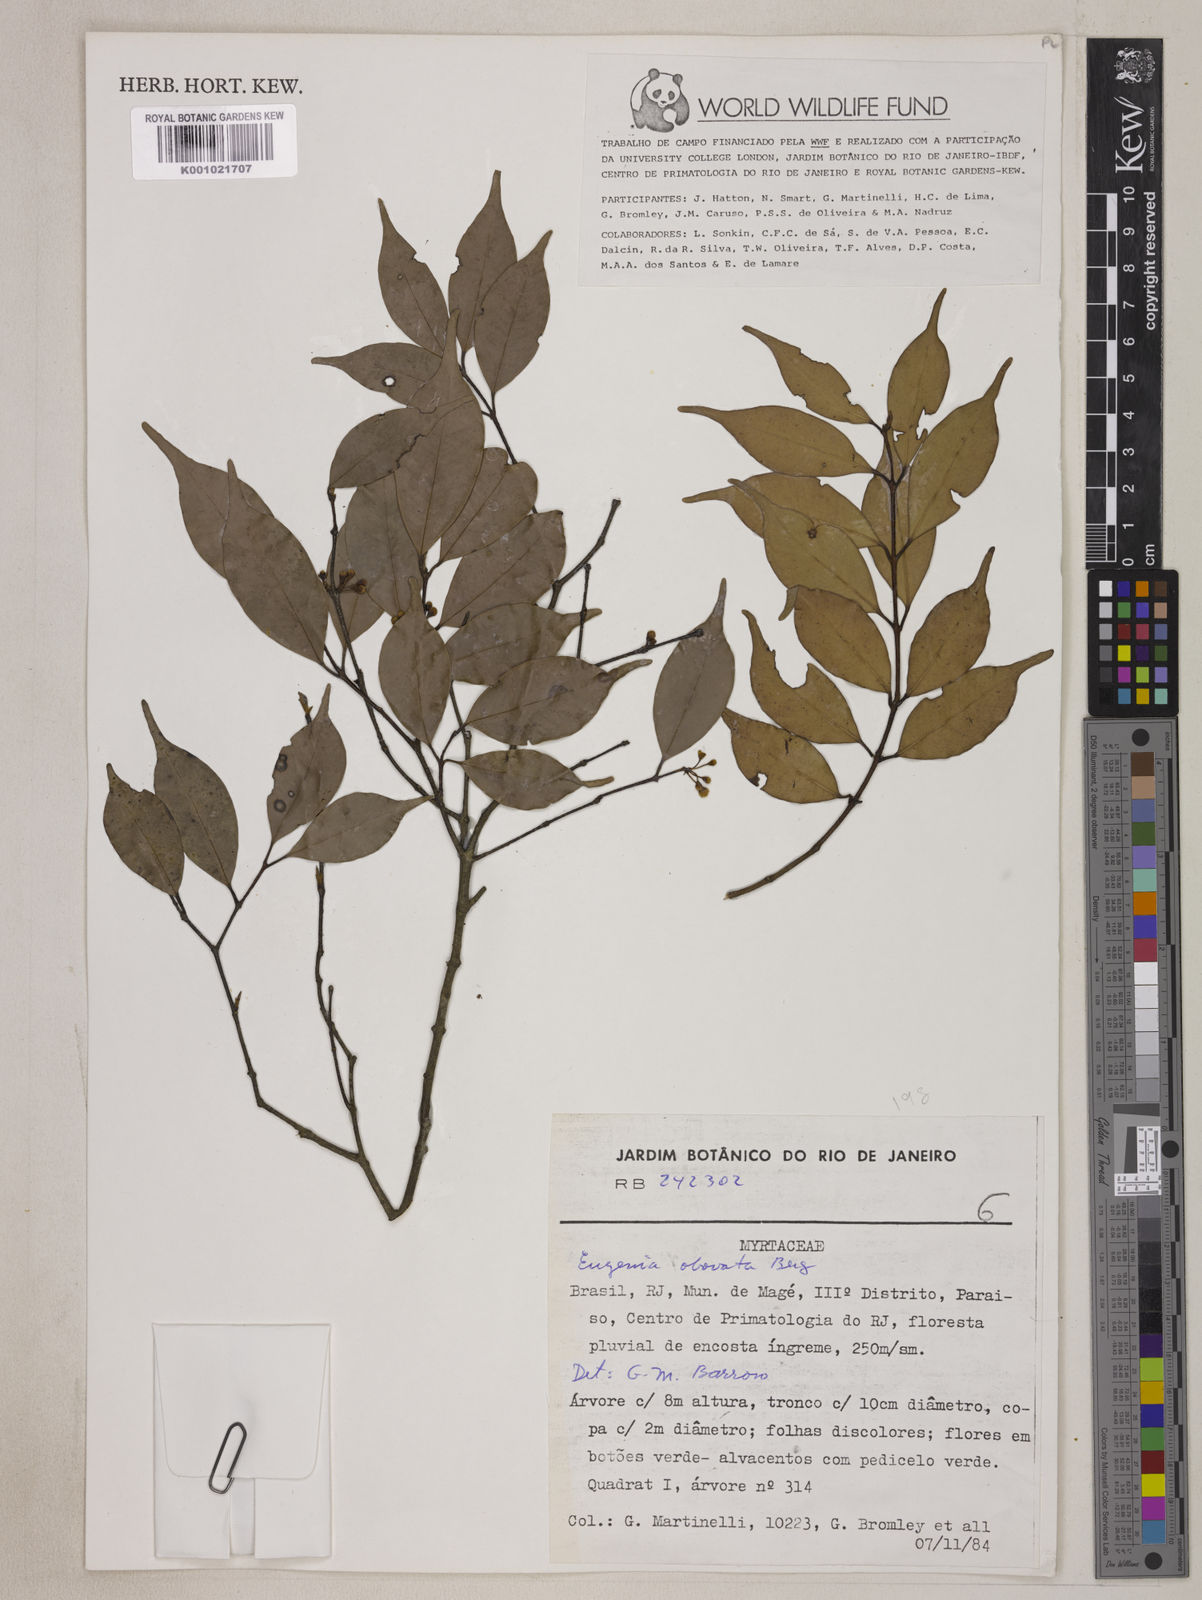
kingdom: Plantae
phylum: Tracheophyta
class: Magnoliopsida
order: Myrtales
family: Myrtaceae
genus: Eugenia
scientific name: Eugenia subterminalis
